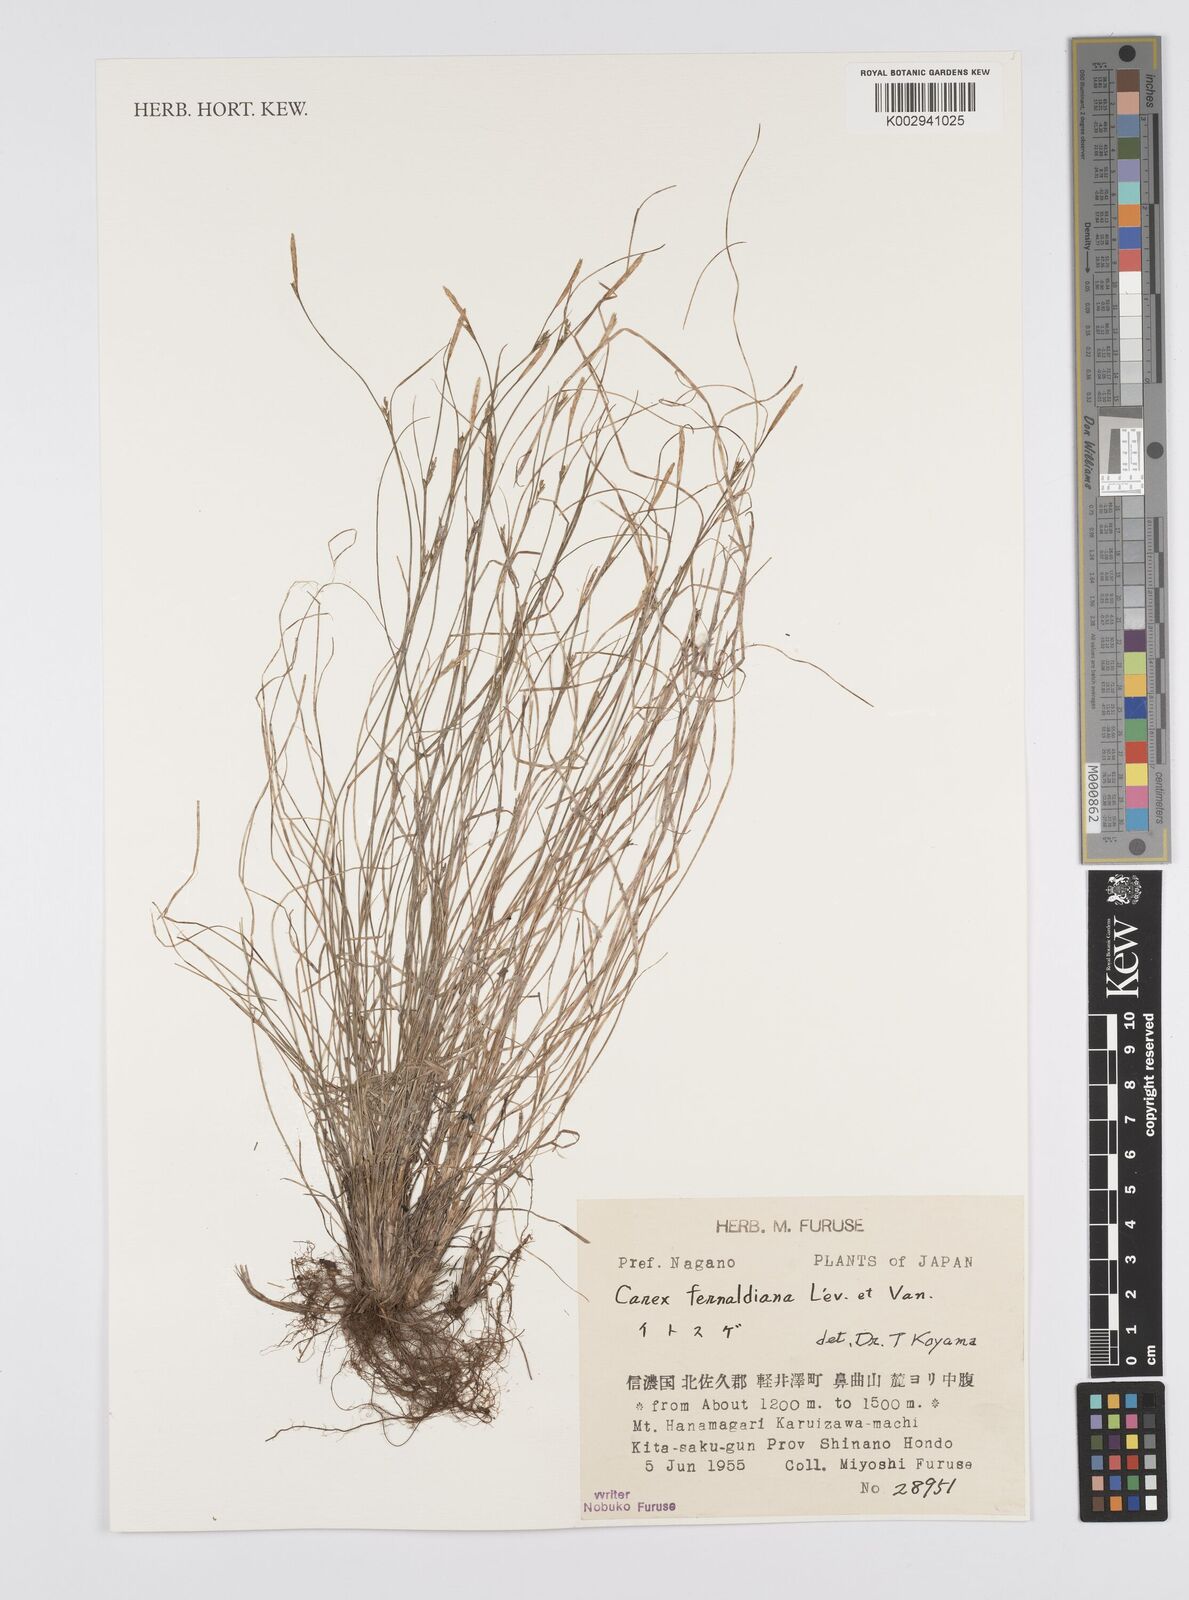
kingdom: Plantae
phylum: Tracheophyta
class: Liliopsida
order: Poales
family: Cyperaceae
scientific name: Cyperaceae
